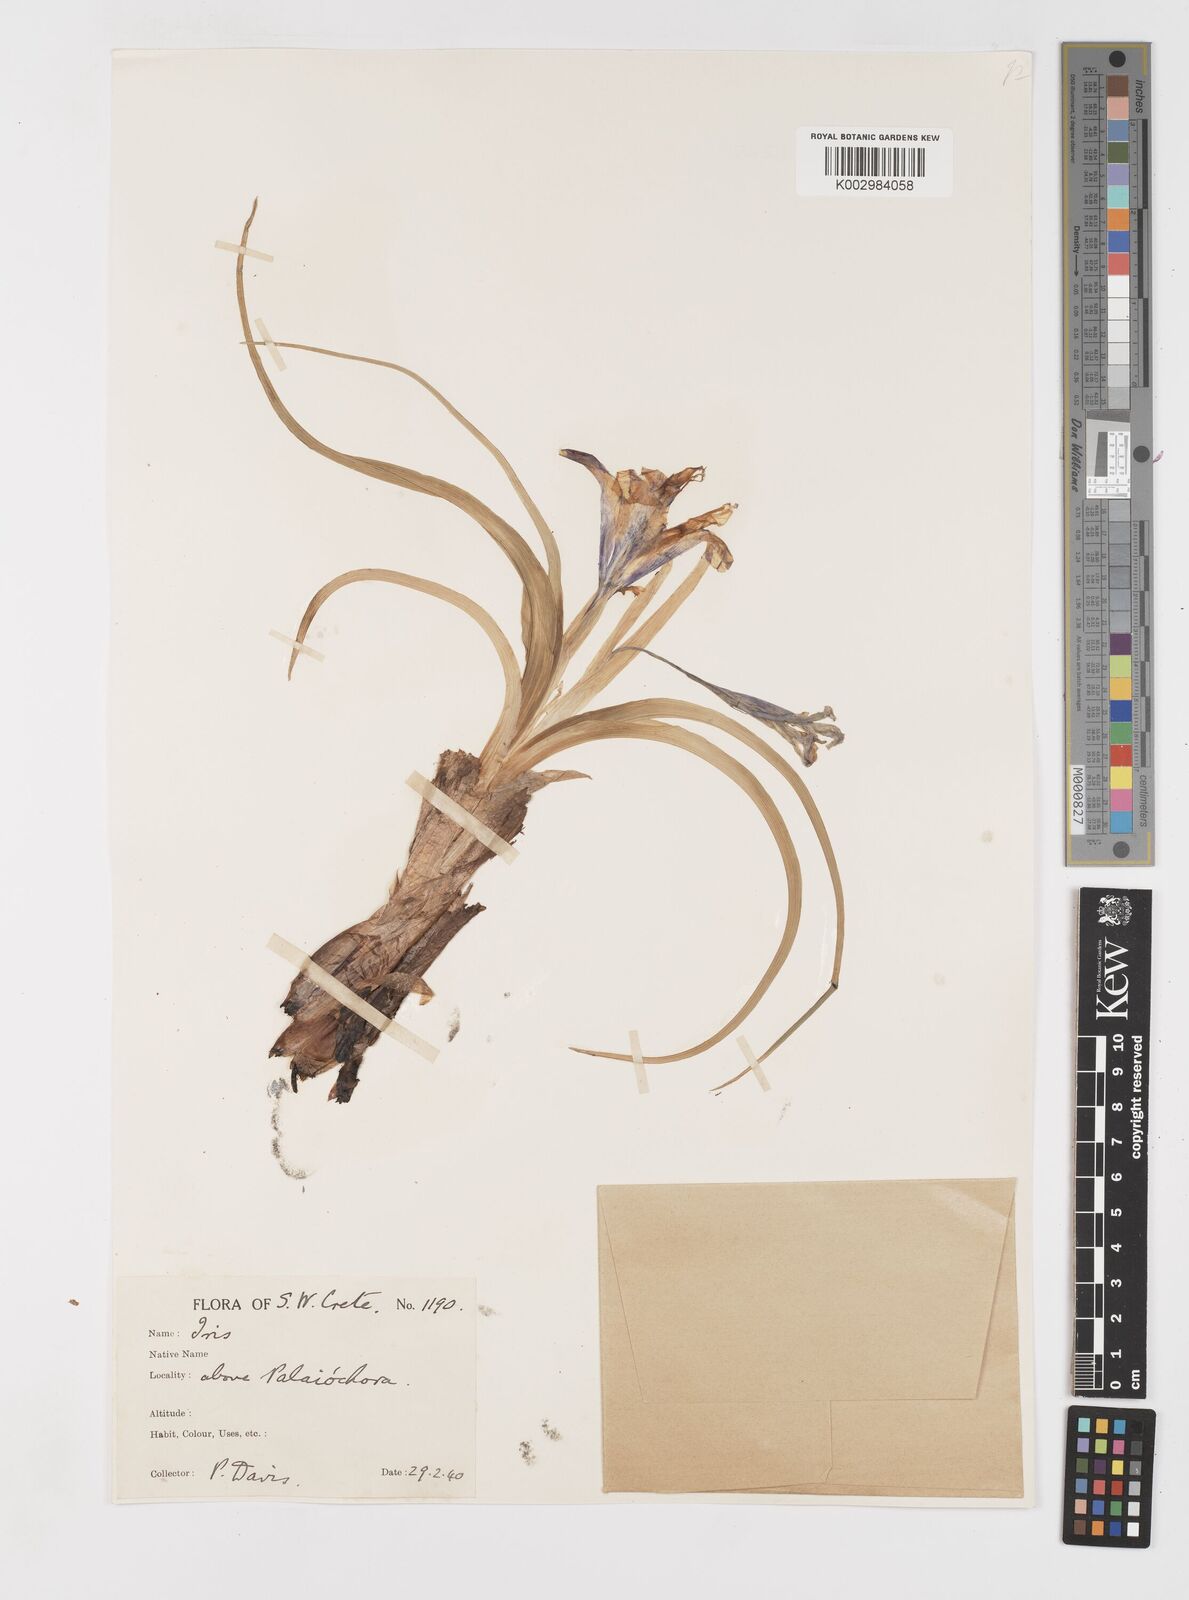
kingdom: Plantae
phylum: Tracheophyta
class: Liliopsida
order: Asparagales
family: Iridaceae
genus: Iris
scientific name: Iris planifolia
